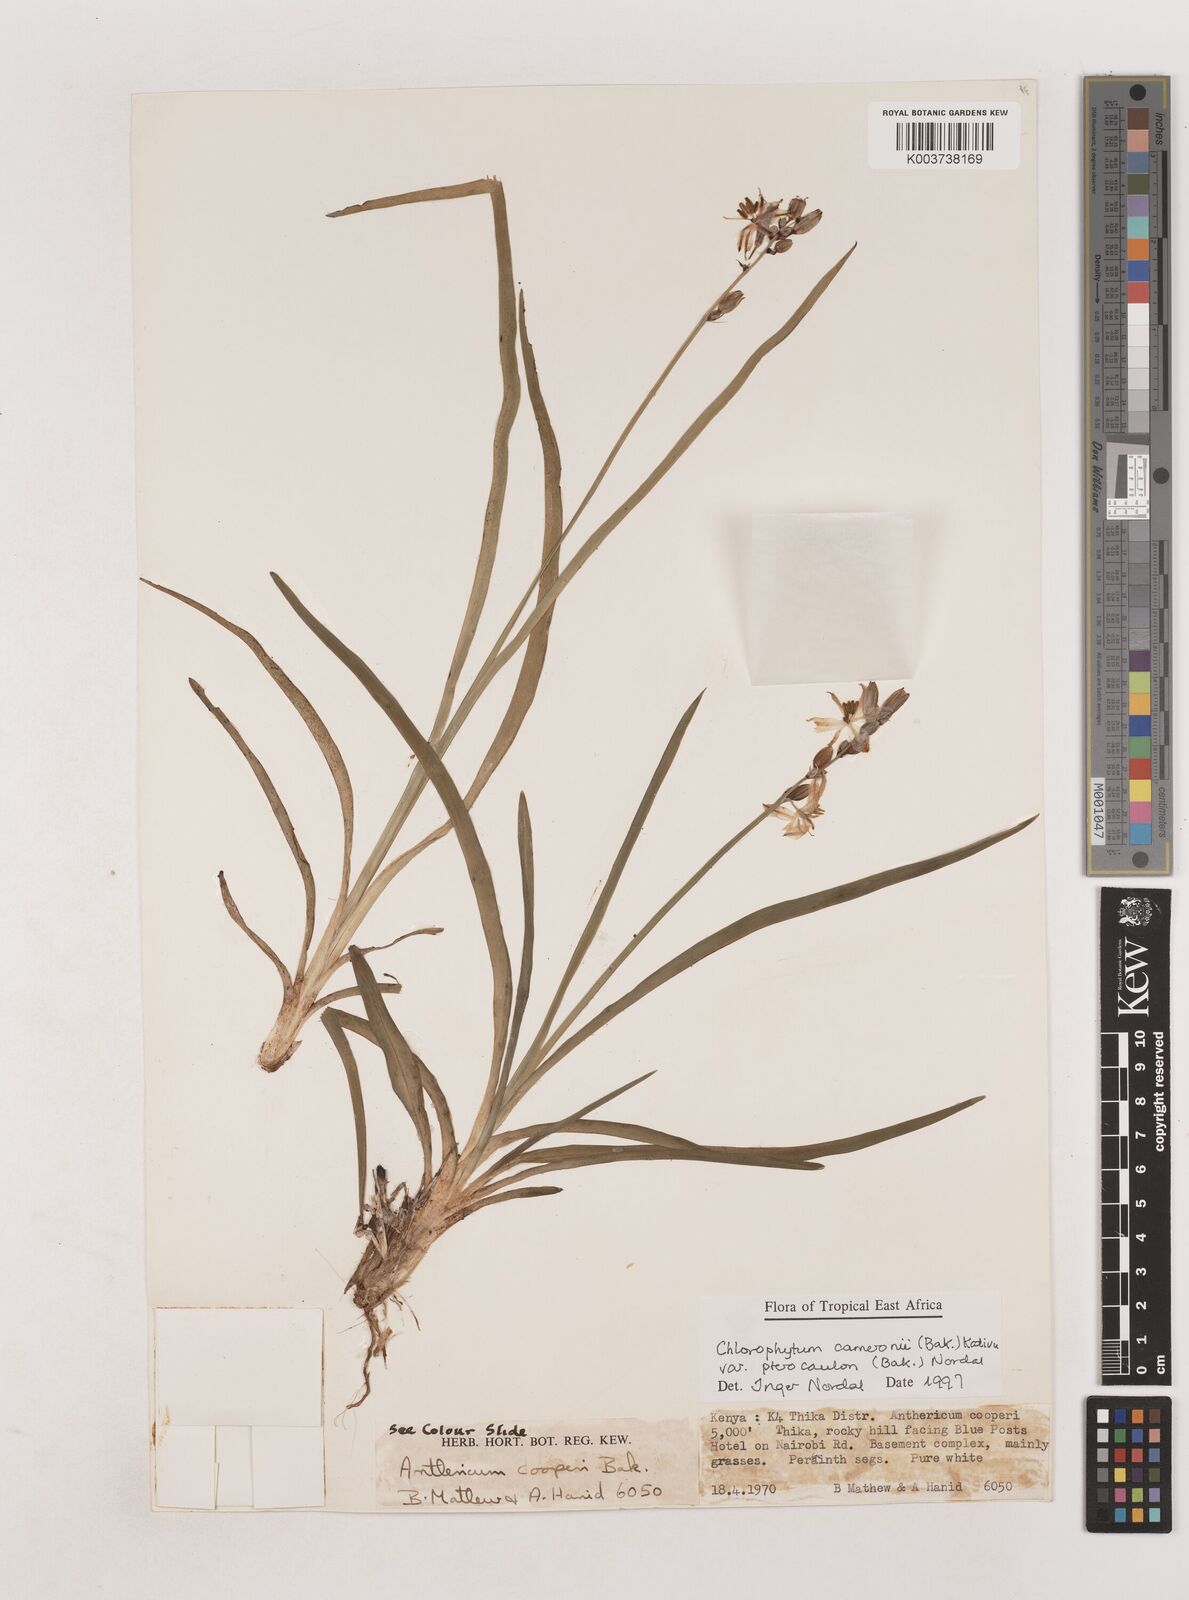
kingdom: Plantae
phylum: Tracheophyta
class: Liliopsida
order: Asparagales
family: Asparagaceae
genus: Chlorophytum
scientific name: Chlorophytum cameronii
